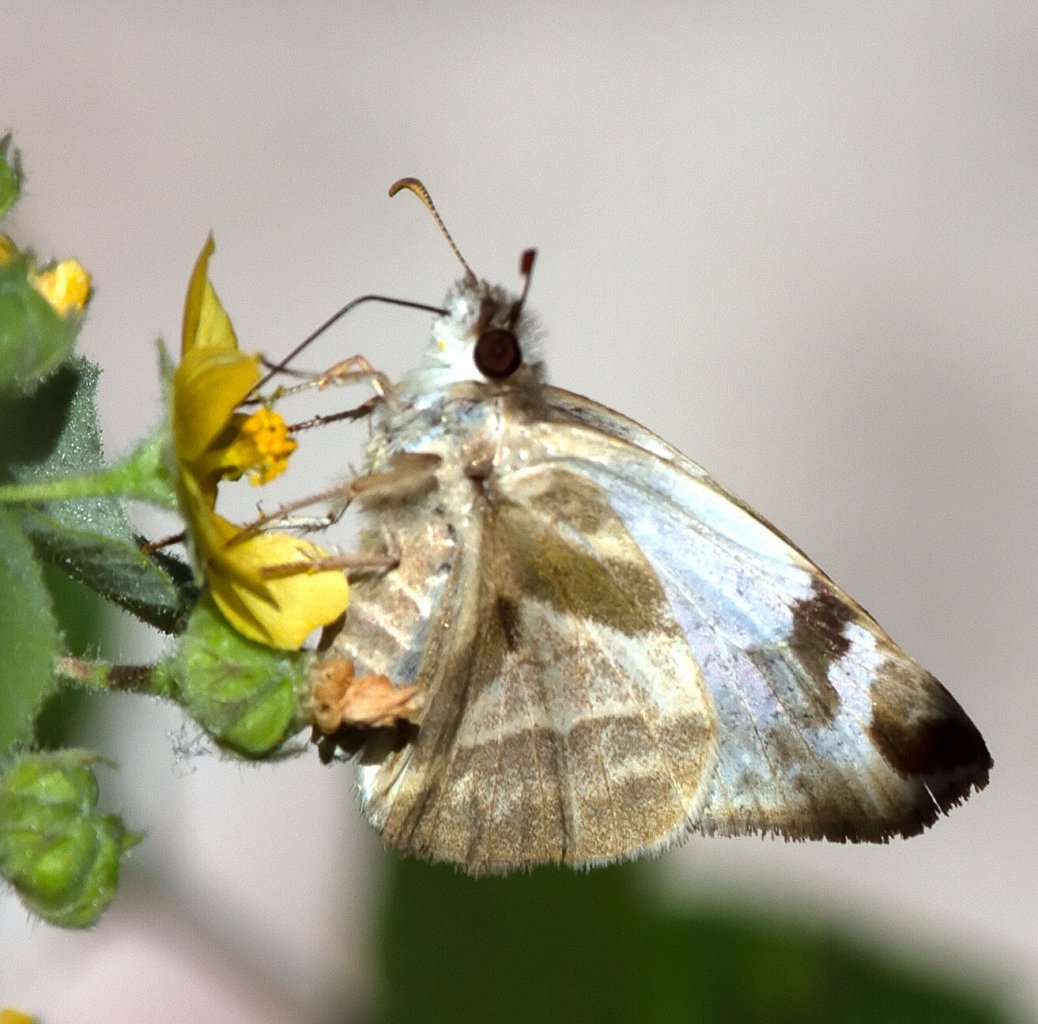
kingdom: Animalia
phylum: Arthropoda
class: Insecta
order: Lepidoptera
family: Hesperiidae
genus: Heliopetes
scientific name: Heliopetes laviana
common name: Laviana White-Skipper
